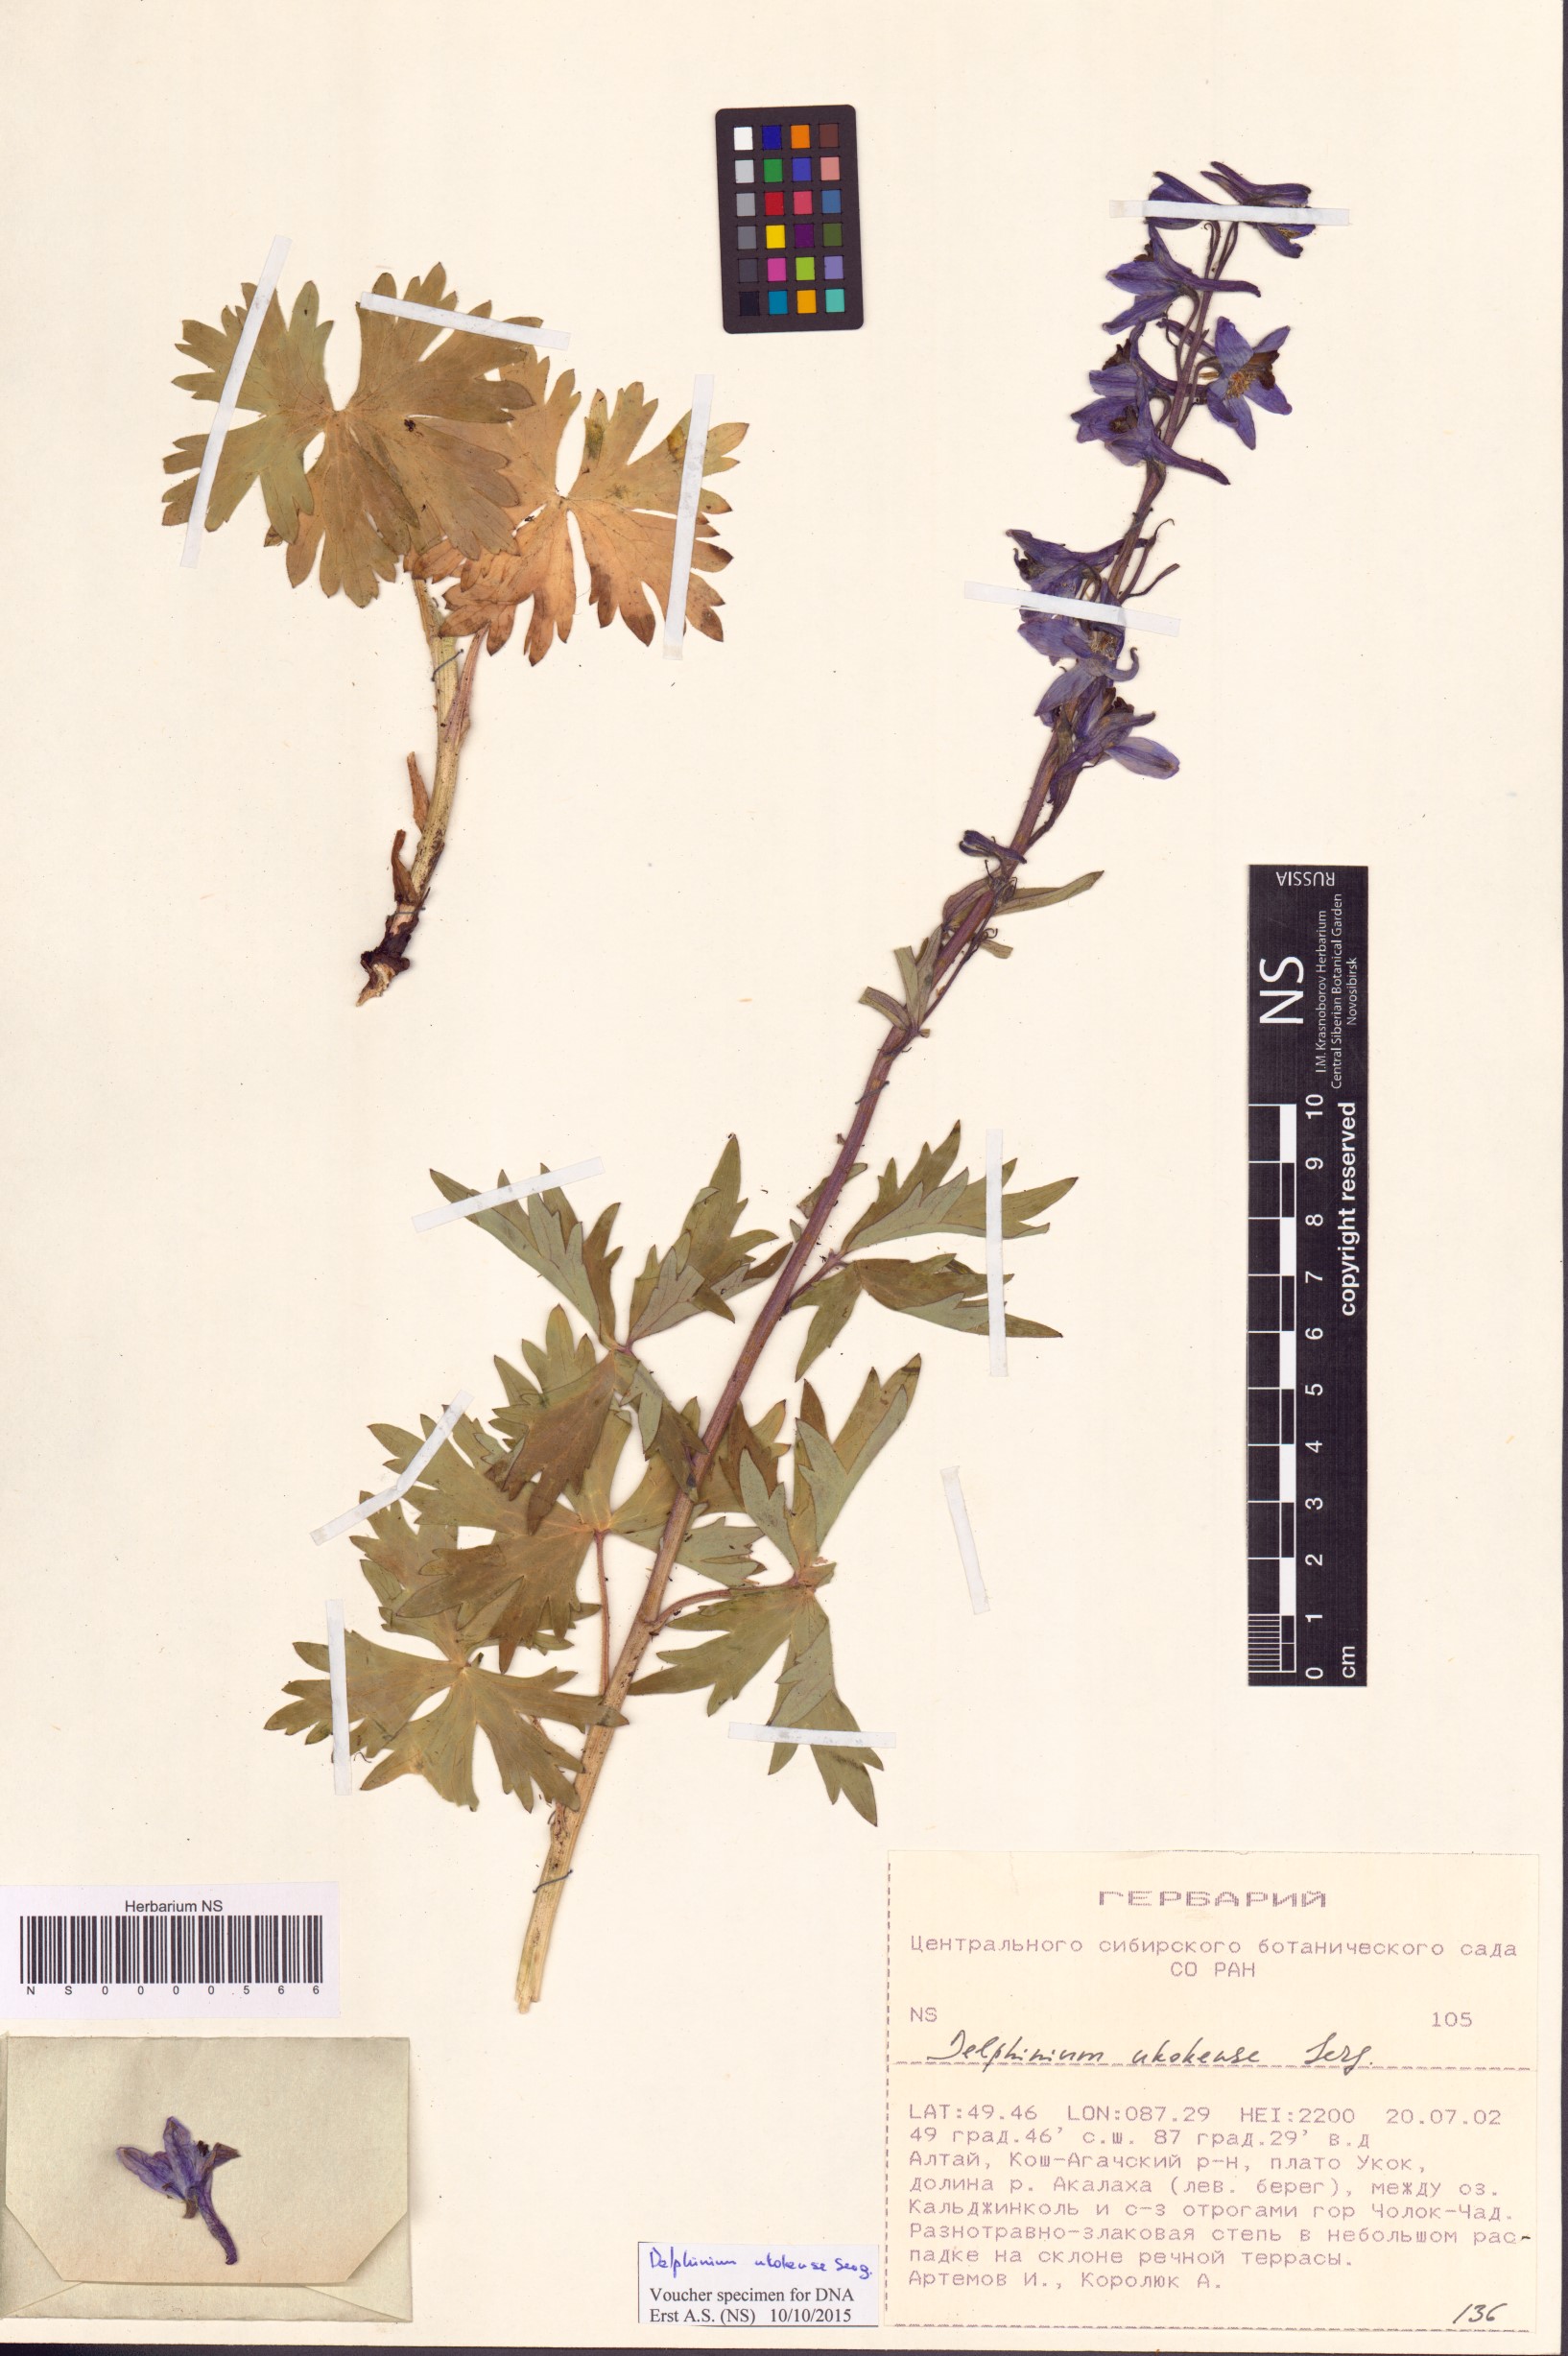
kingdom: Plantae
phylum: Tracheophyta
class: Magnoliopsida
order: Ranunculales
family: Ranunculaceae
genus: Delphinium
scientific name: Delphinium ukokense
